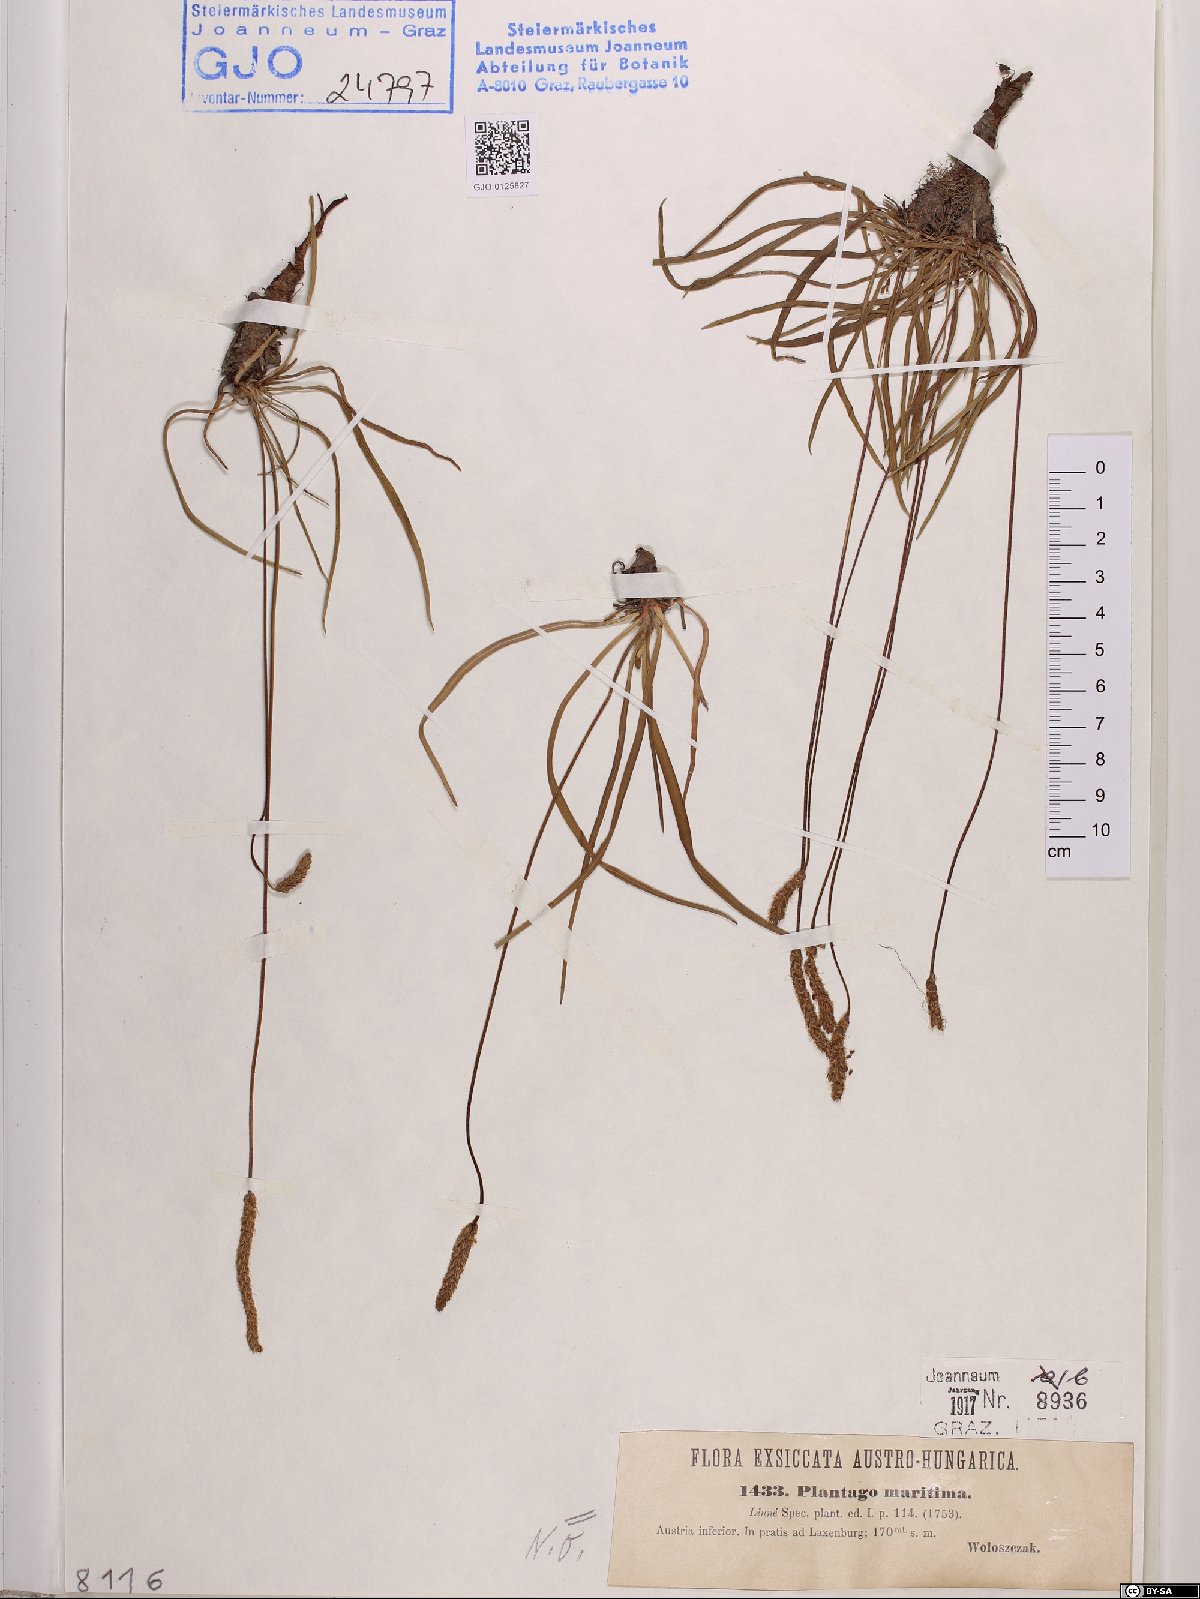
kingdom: Plantae
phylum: Tracheophyta
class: Magnoliopsida
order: Lamiales
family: Plantaginaceae
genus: Plantago
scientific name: Plantago maritima
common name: Sea plantain
